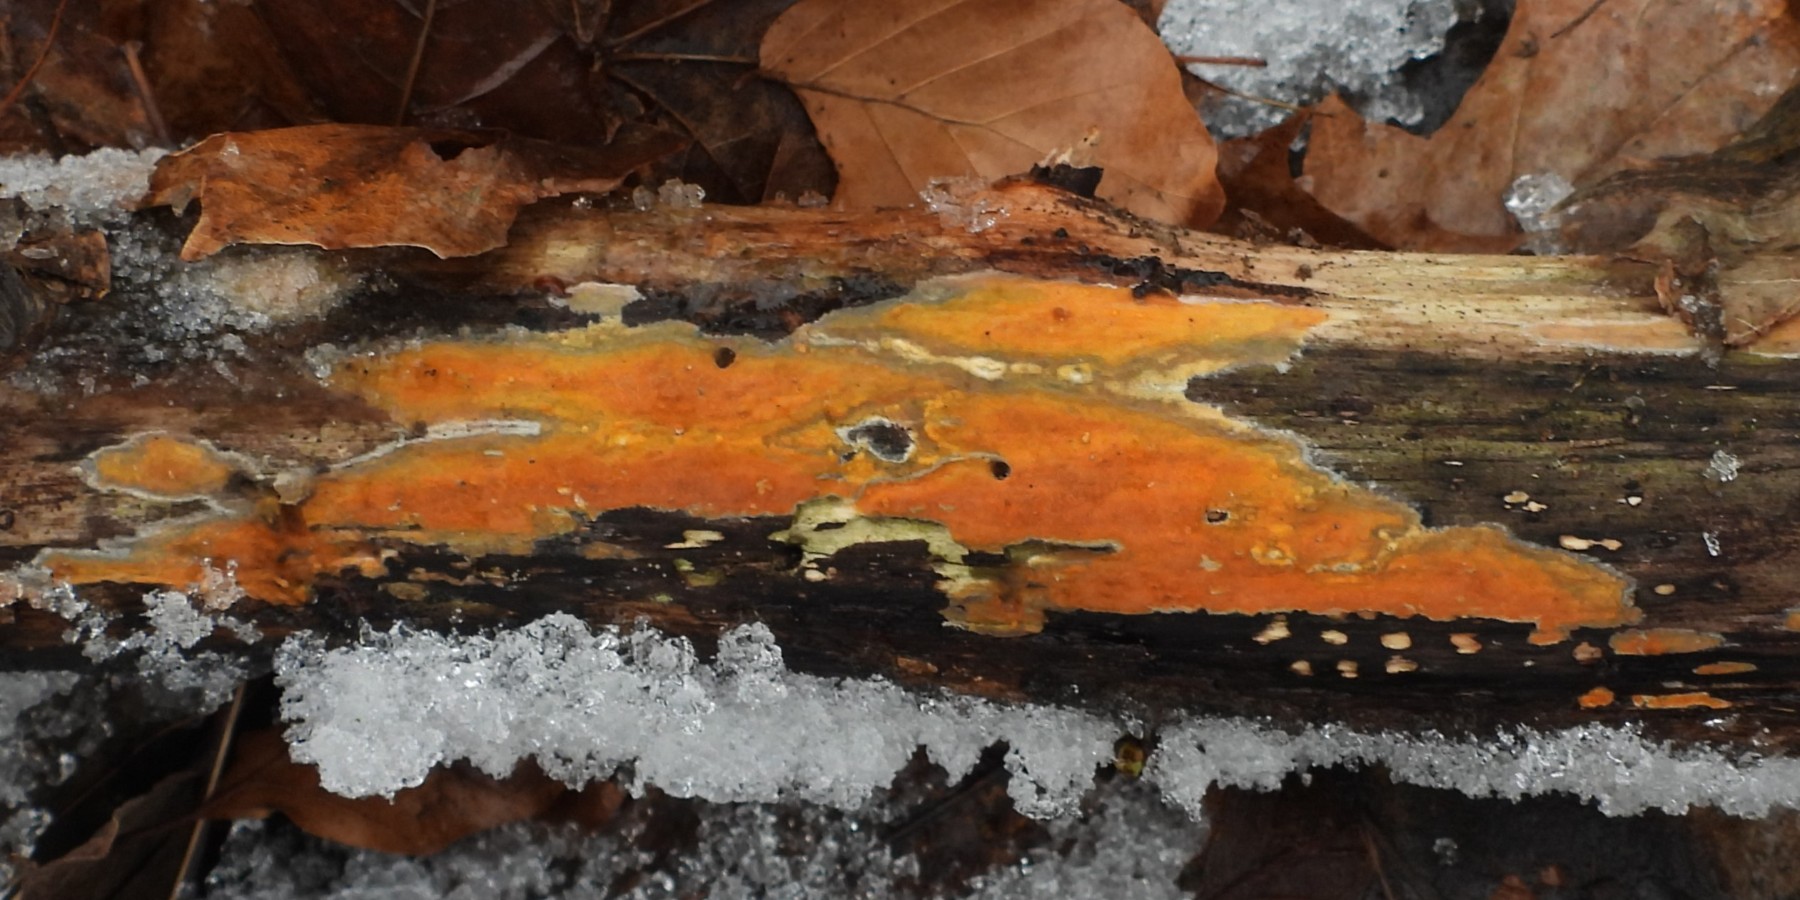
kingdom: Fungi
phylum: Basidiomycota
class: Agaricomycetes
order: Russulales
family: Peniophoraceae
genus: Peniophora
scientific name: Peniophora incarnata
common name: laksefarvet voksskind
